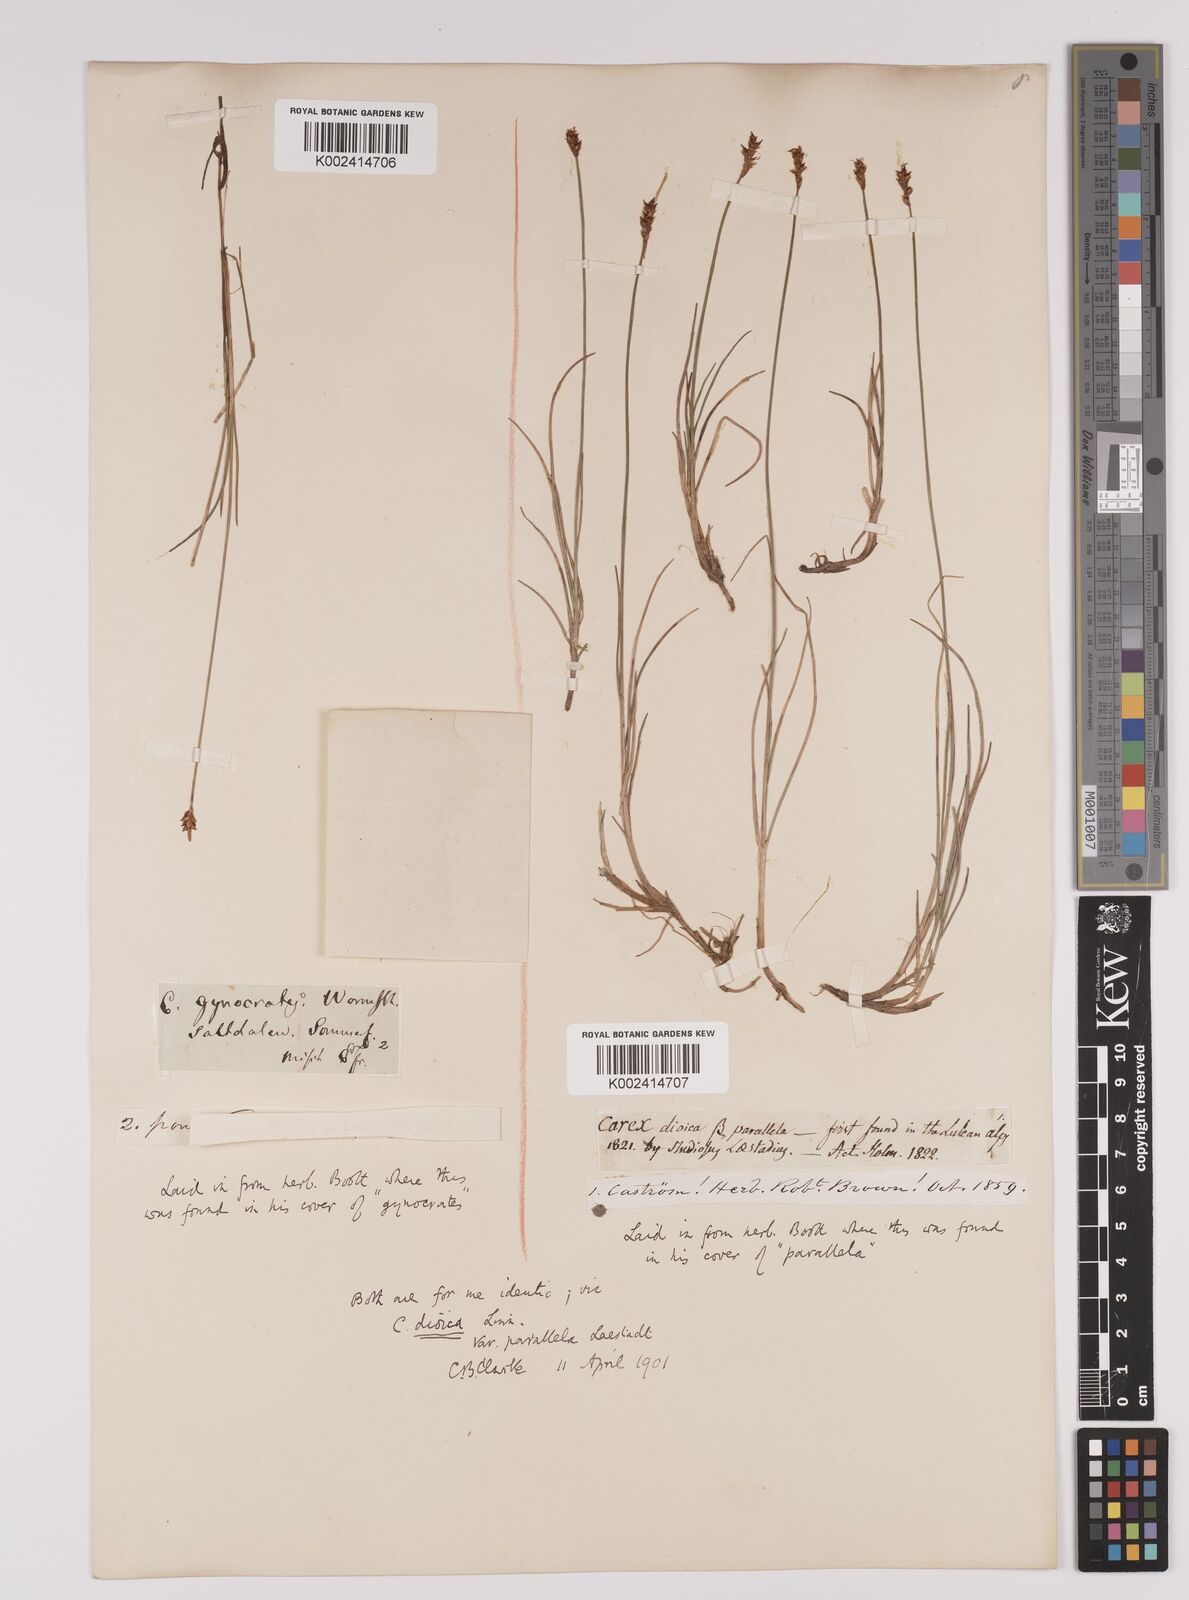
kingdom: Plantae
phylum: Tracheophyta
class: Liliopsida
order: Poales
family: Cyperaceae
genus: Carex
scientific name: Carex parallela
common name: Parallel sedge
